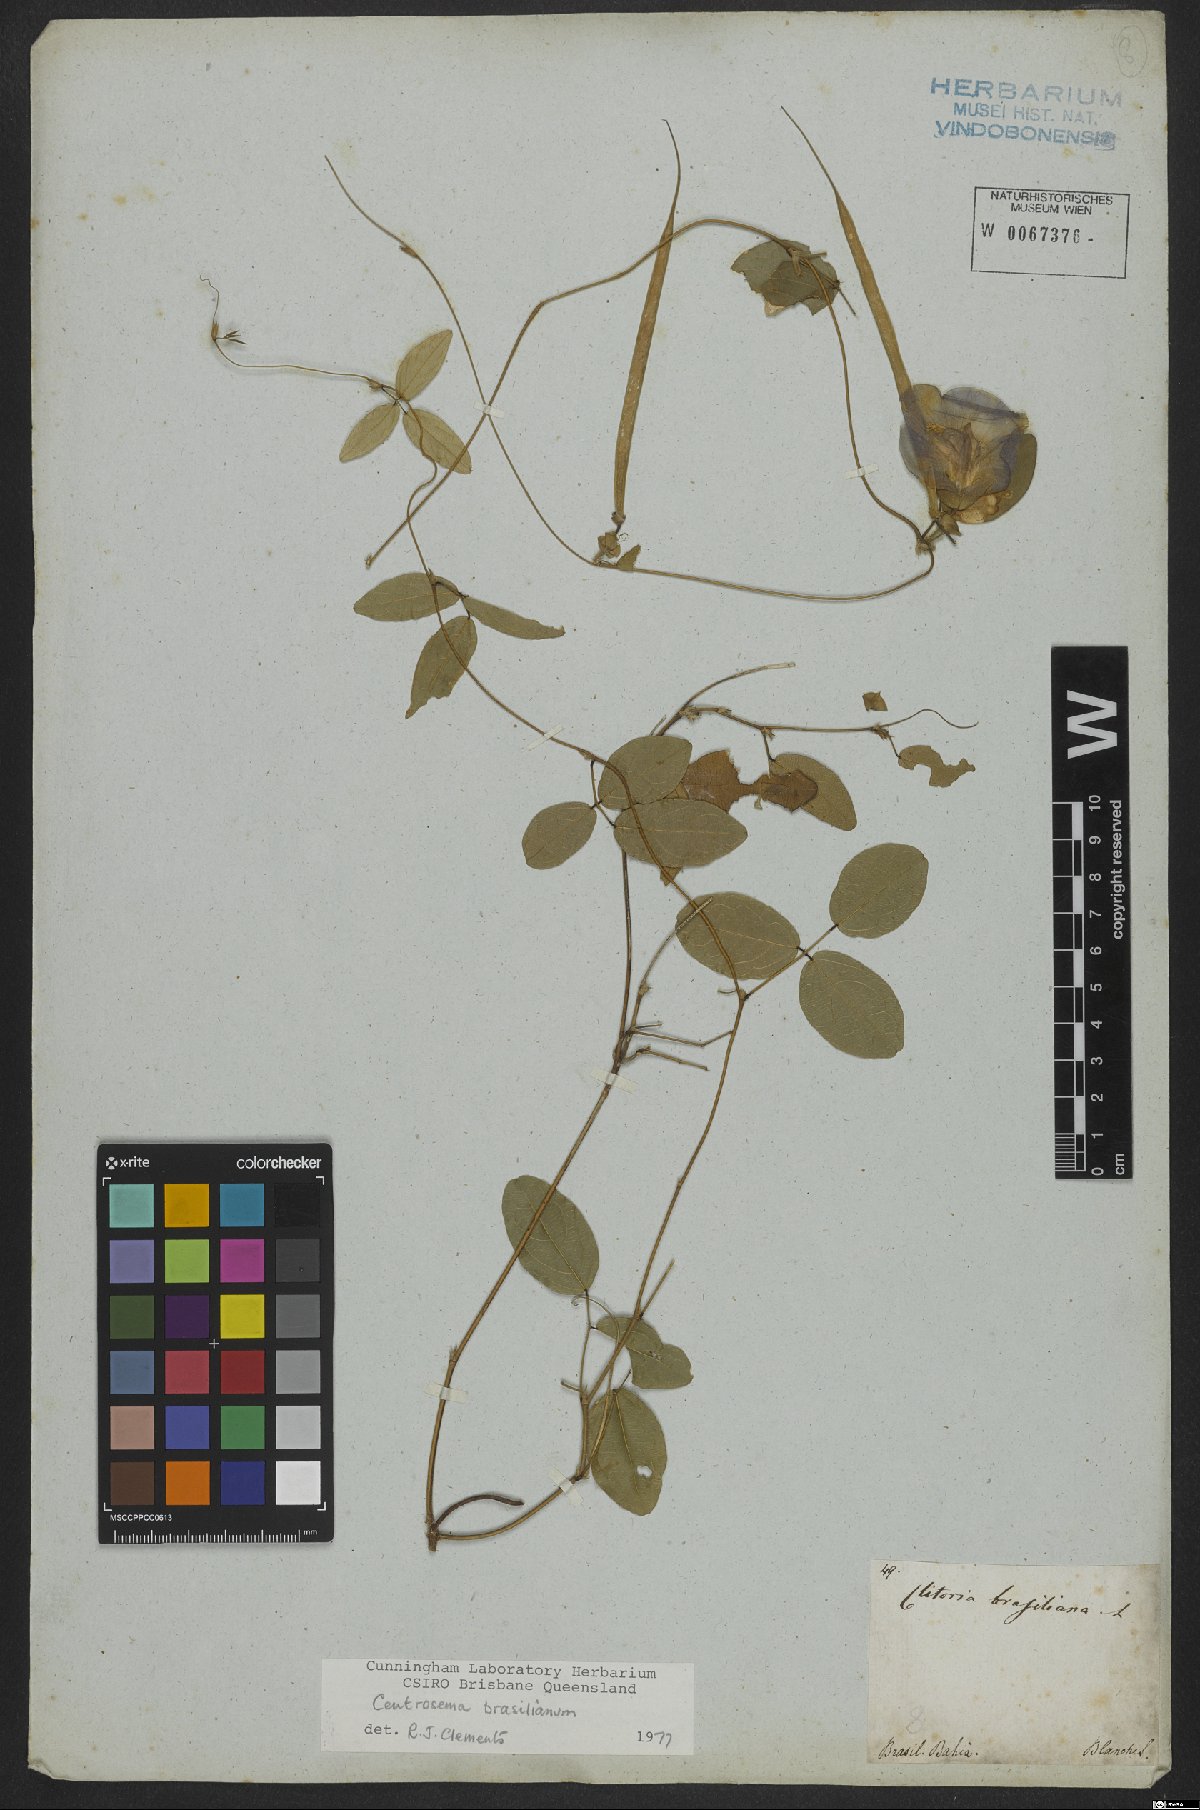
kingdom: Plantae
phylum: Tracheophyta
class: Magnoliopsida
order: Fabales
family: Fabaceae
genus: Centrosema
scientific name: Centrosema brasilianum
